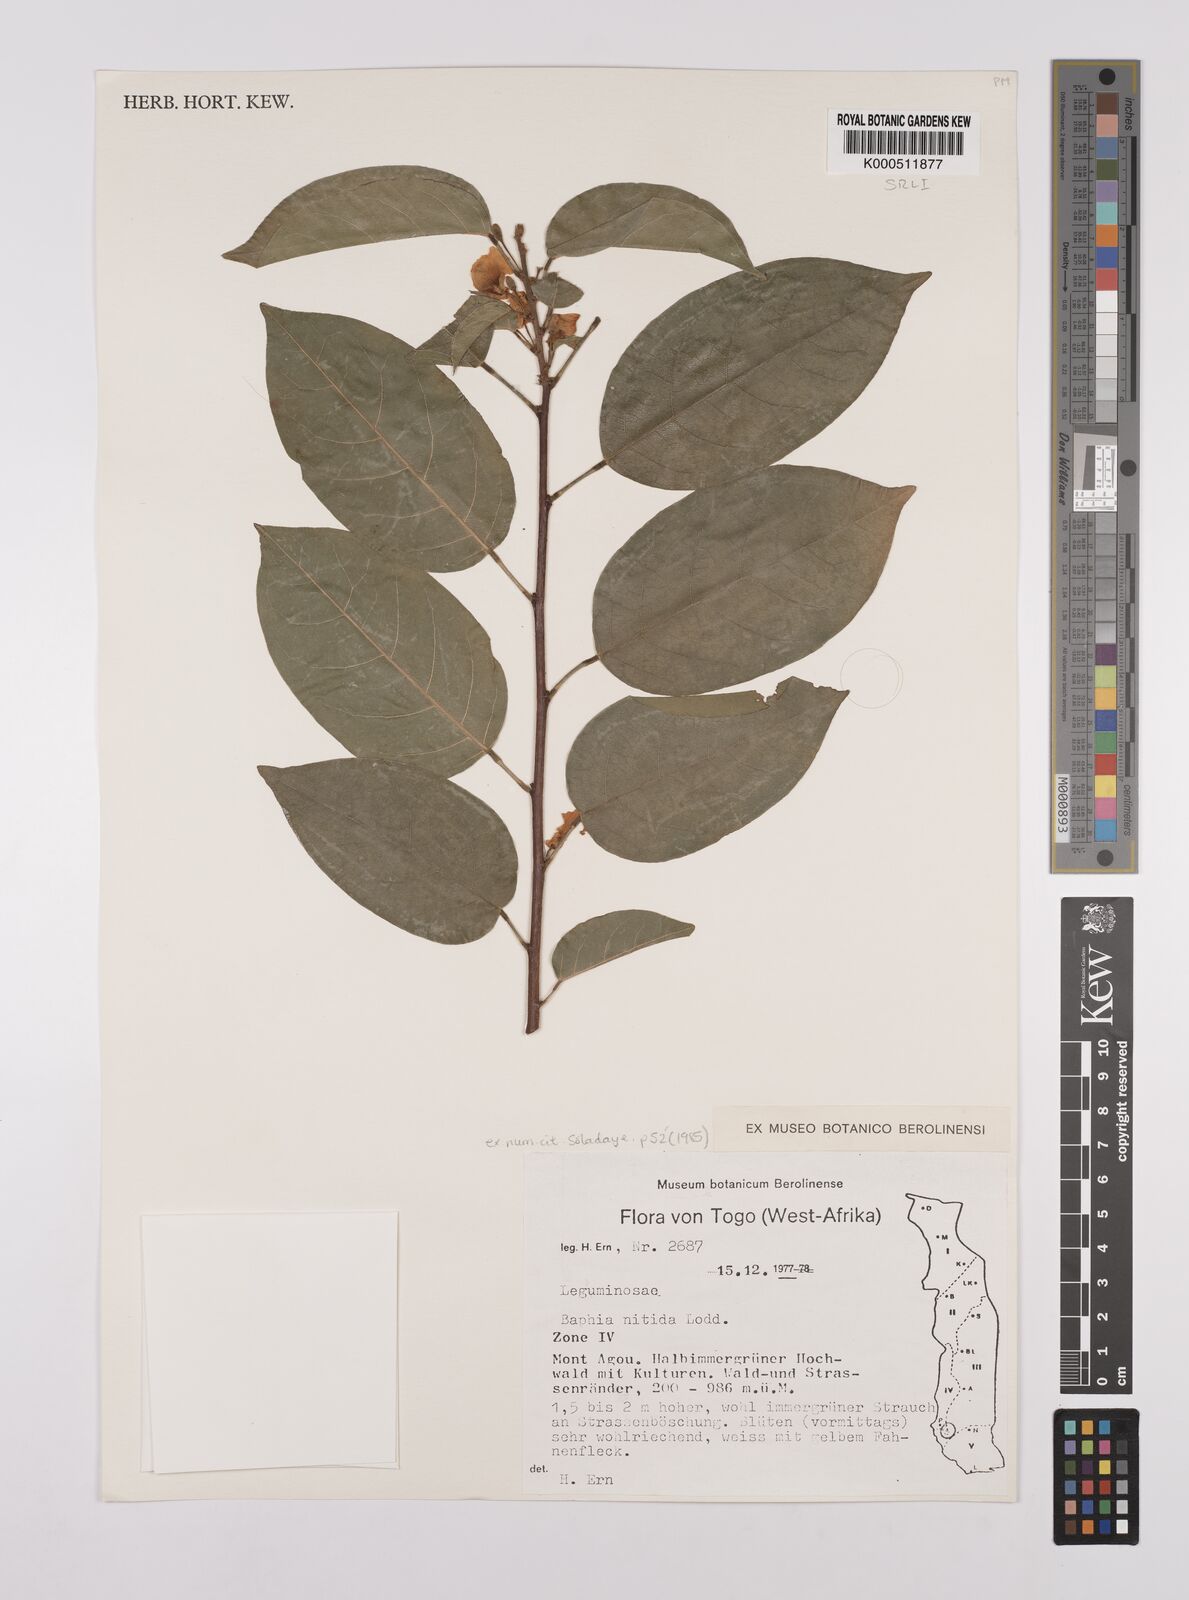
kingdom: Plantae
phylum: Tracheophyta
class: Magnoliopsida
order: Fabales
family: Fabaceae
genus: Baphia
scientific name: Baphia nitida
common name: Camwood
